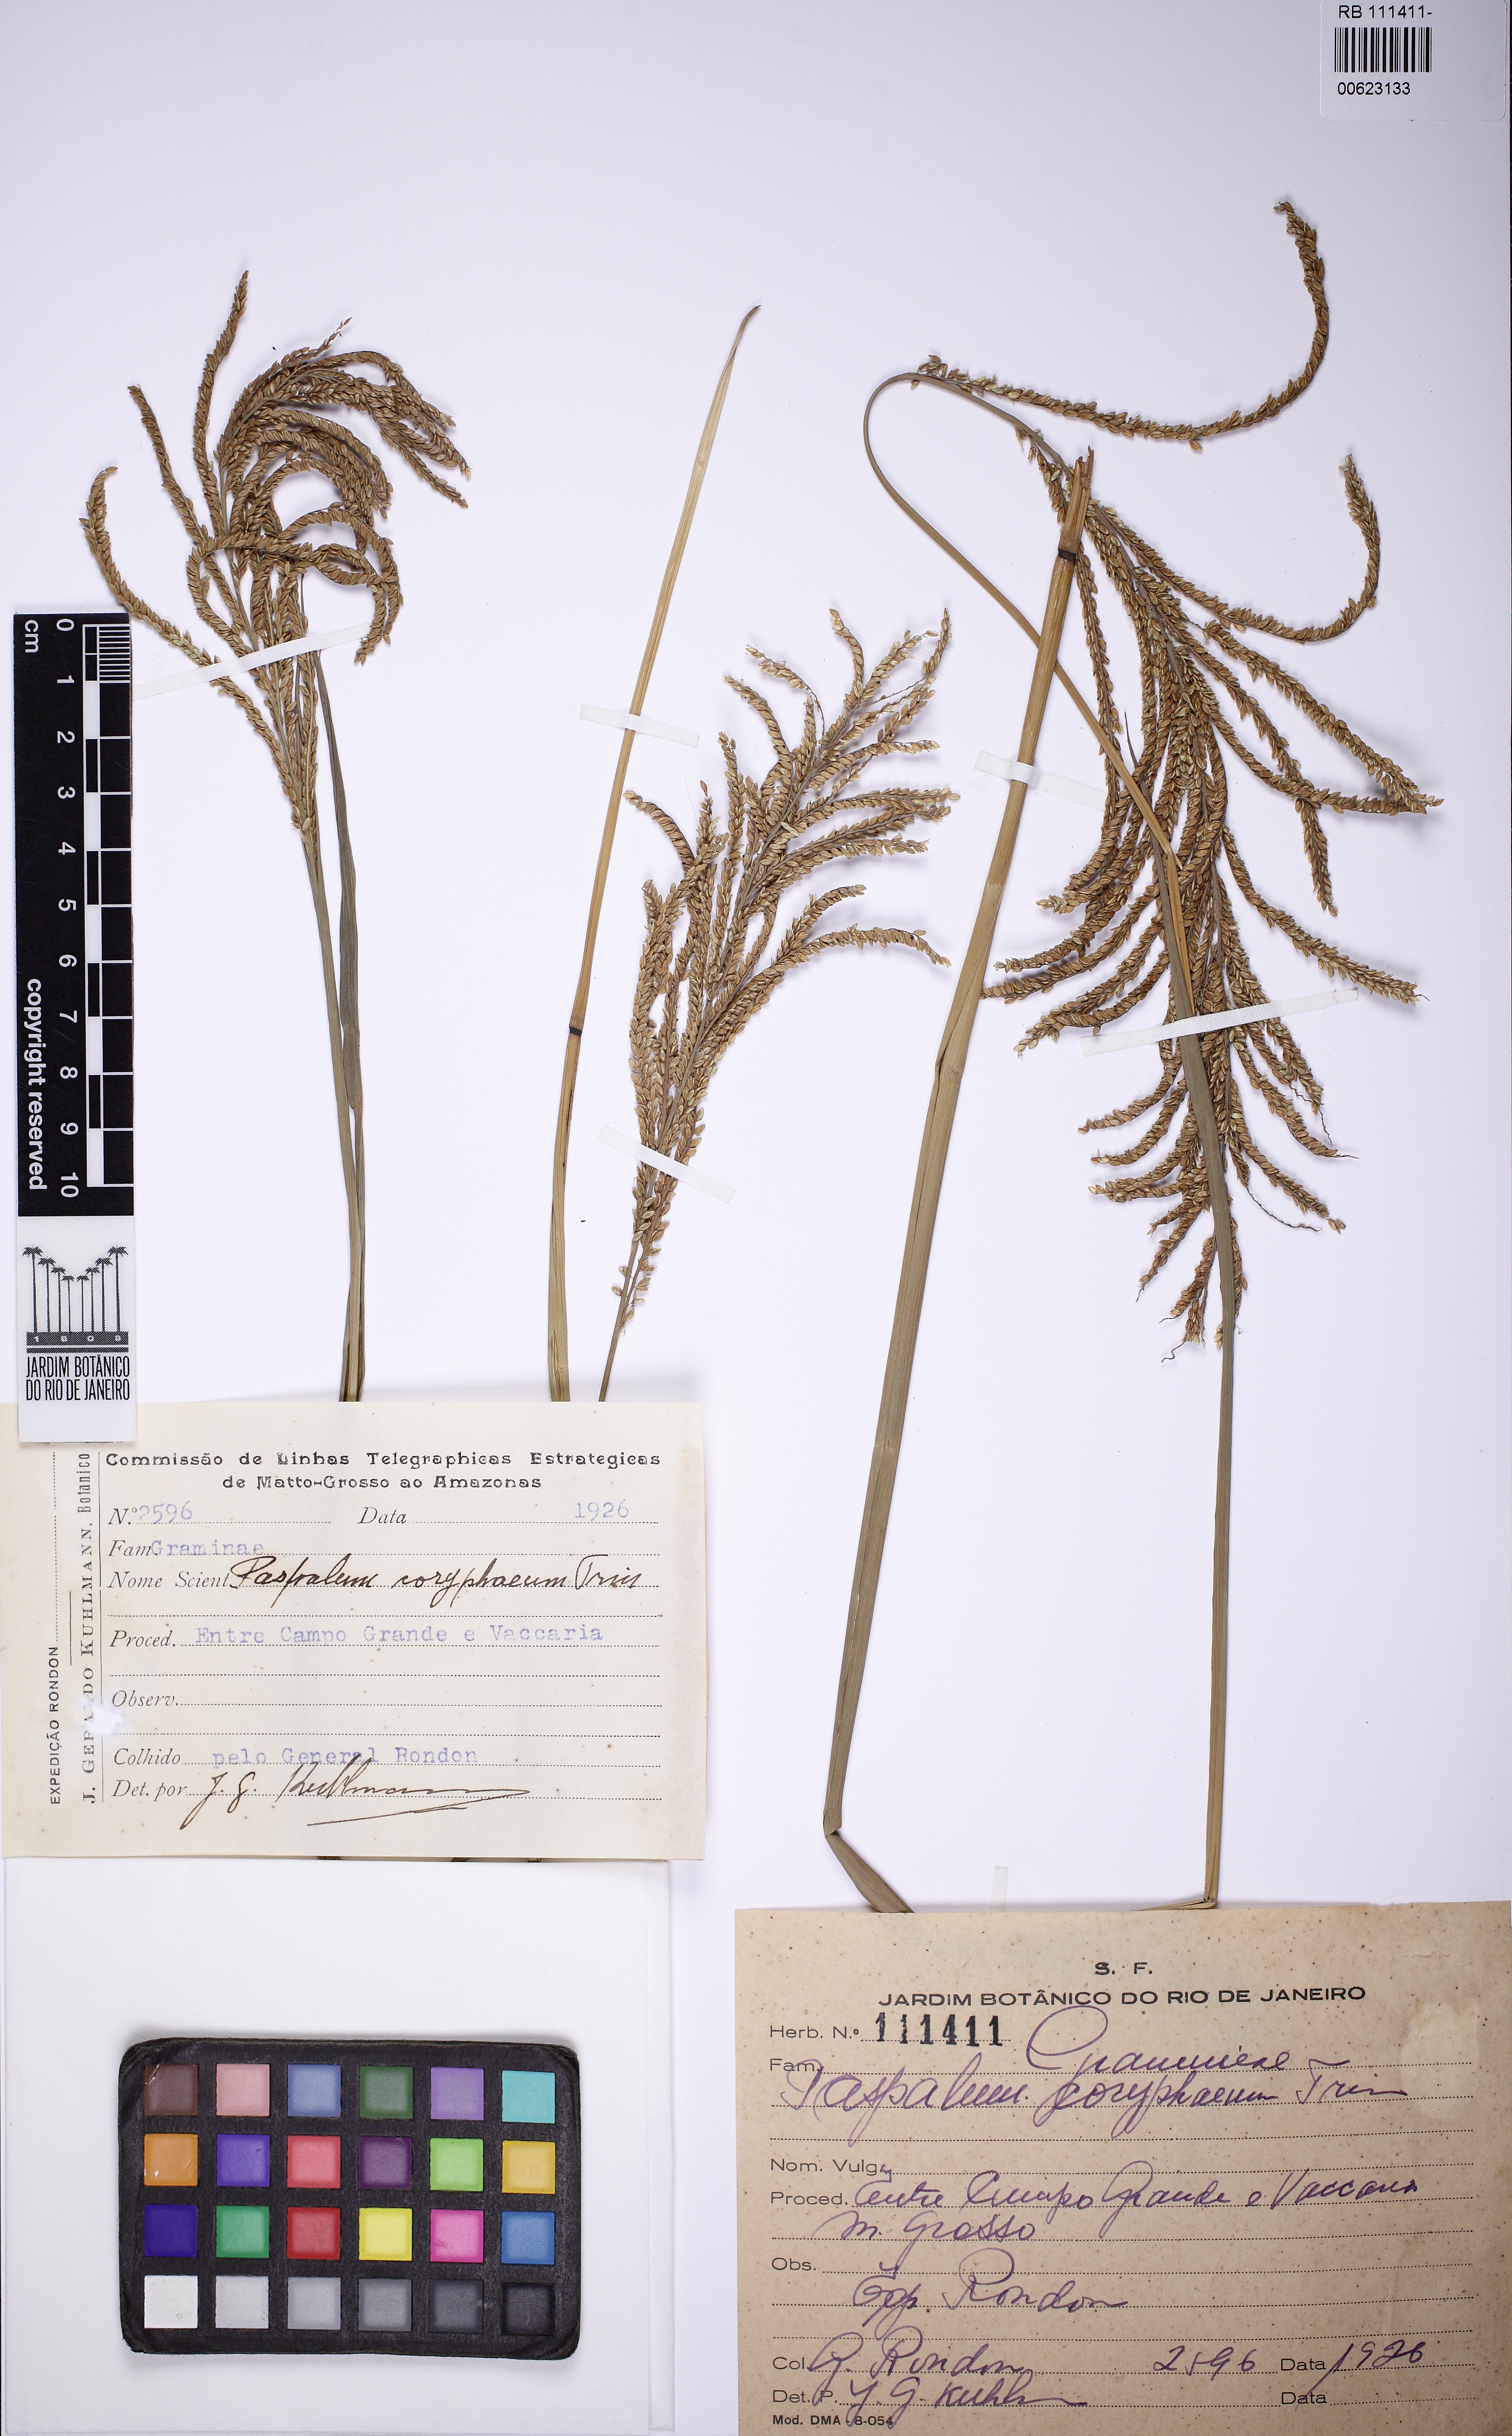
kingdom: Plantae
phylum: Tracheophyta
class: Liliopsida
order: Poales
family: Poaceae
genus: Paspalum
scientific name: Paspalum coryphaeum
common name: Emperor crowngrass
